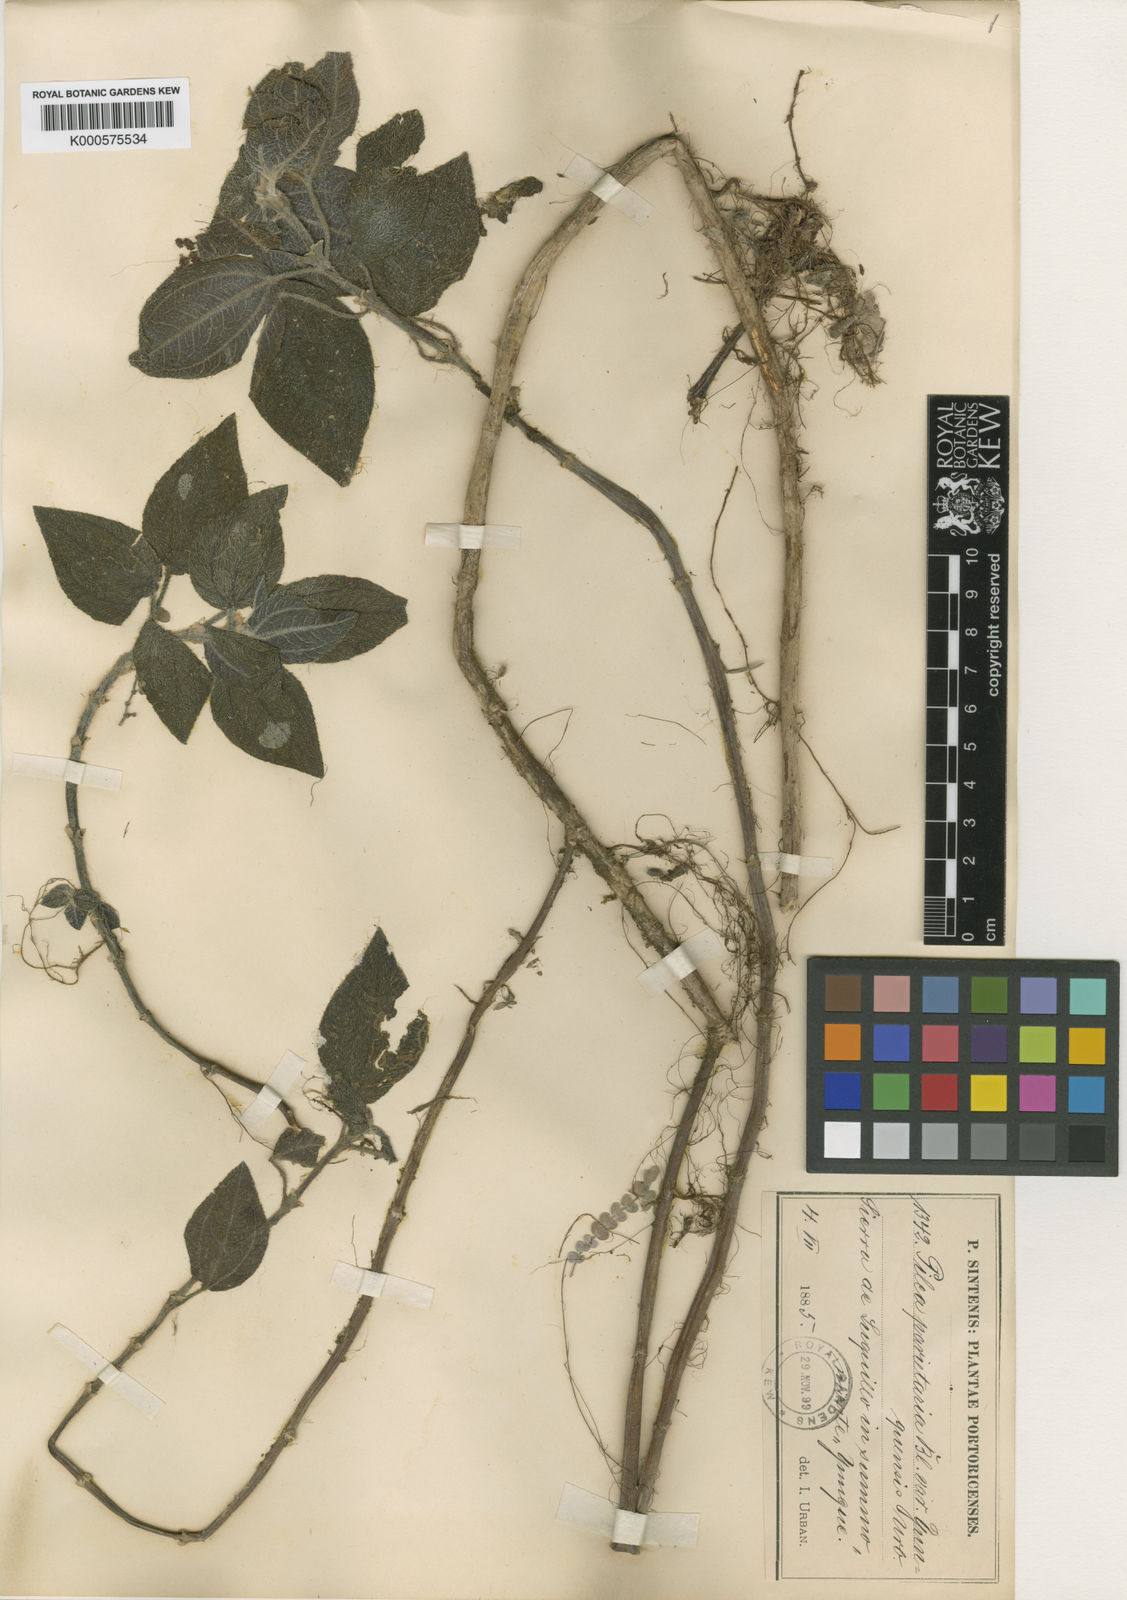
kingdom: Plantae
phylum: Tracheophyta
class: Magnoliopsida
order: Rosales
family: Urticaceae
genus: Pilea
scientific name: Pilea parietaria
